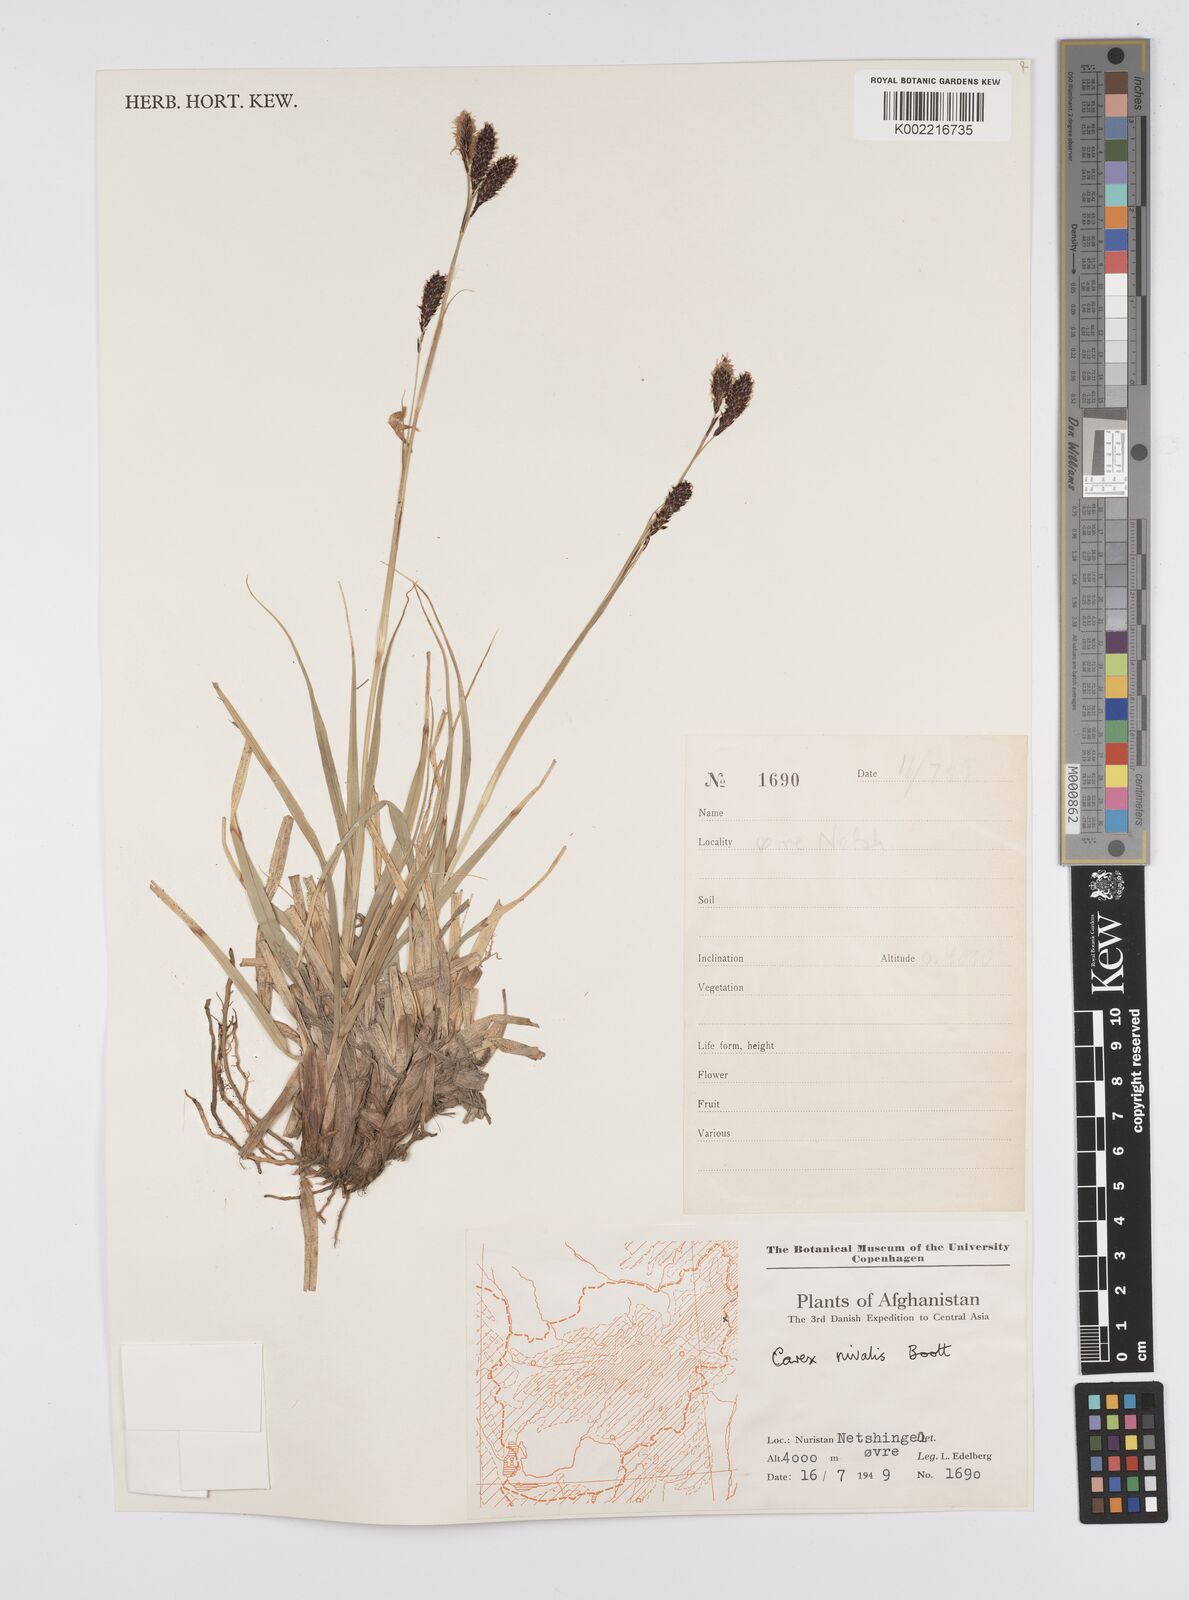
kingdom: Plantae
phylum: Tracheophyta
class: Liliopsida
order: Poales
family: Cyperaceae
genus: Carex
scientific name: Carex nivalis
